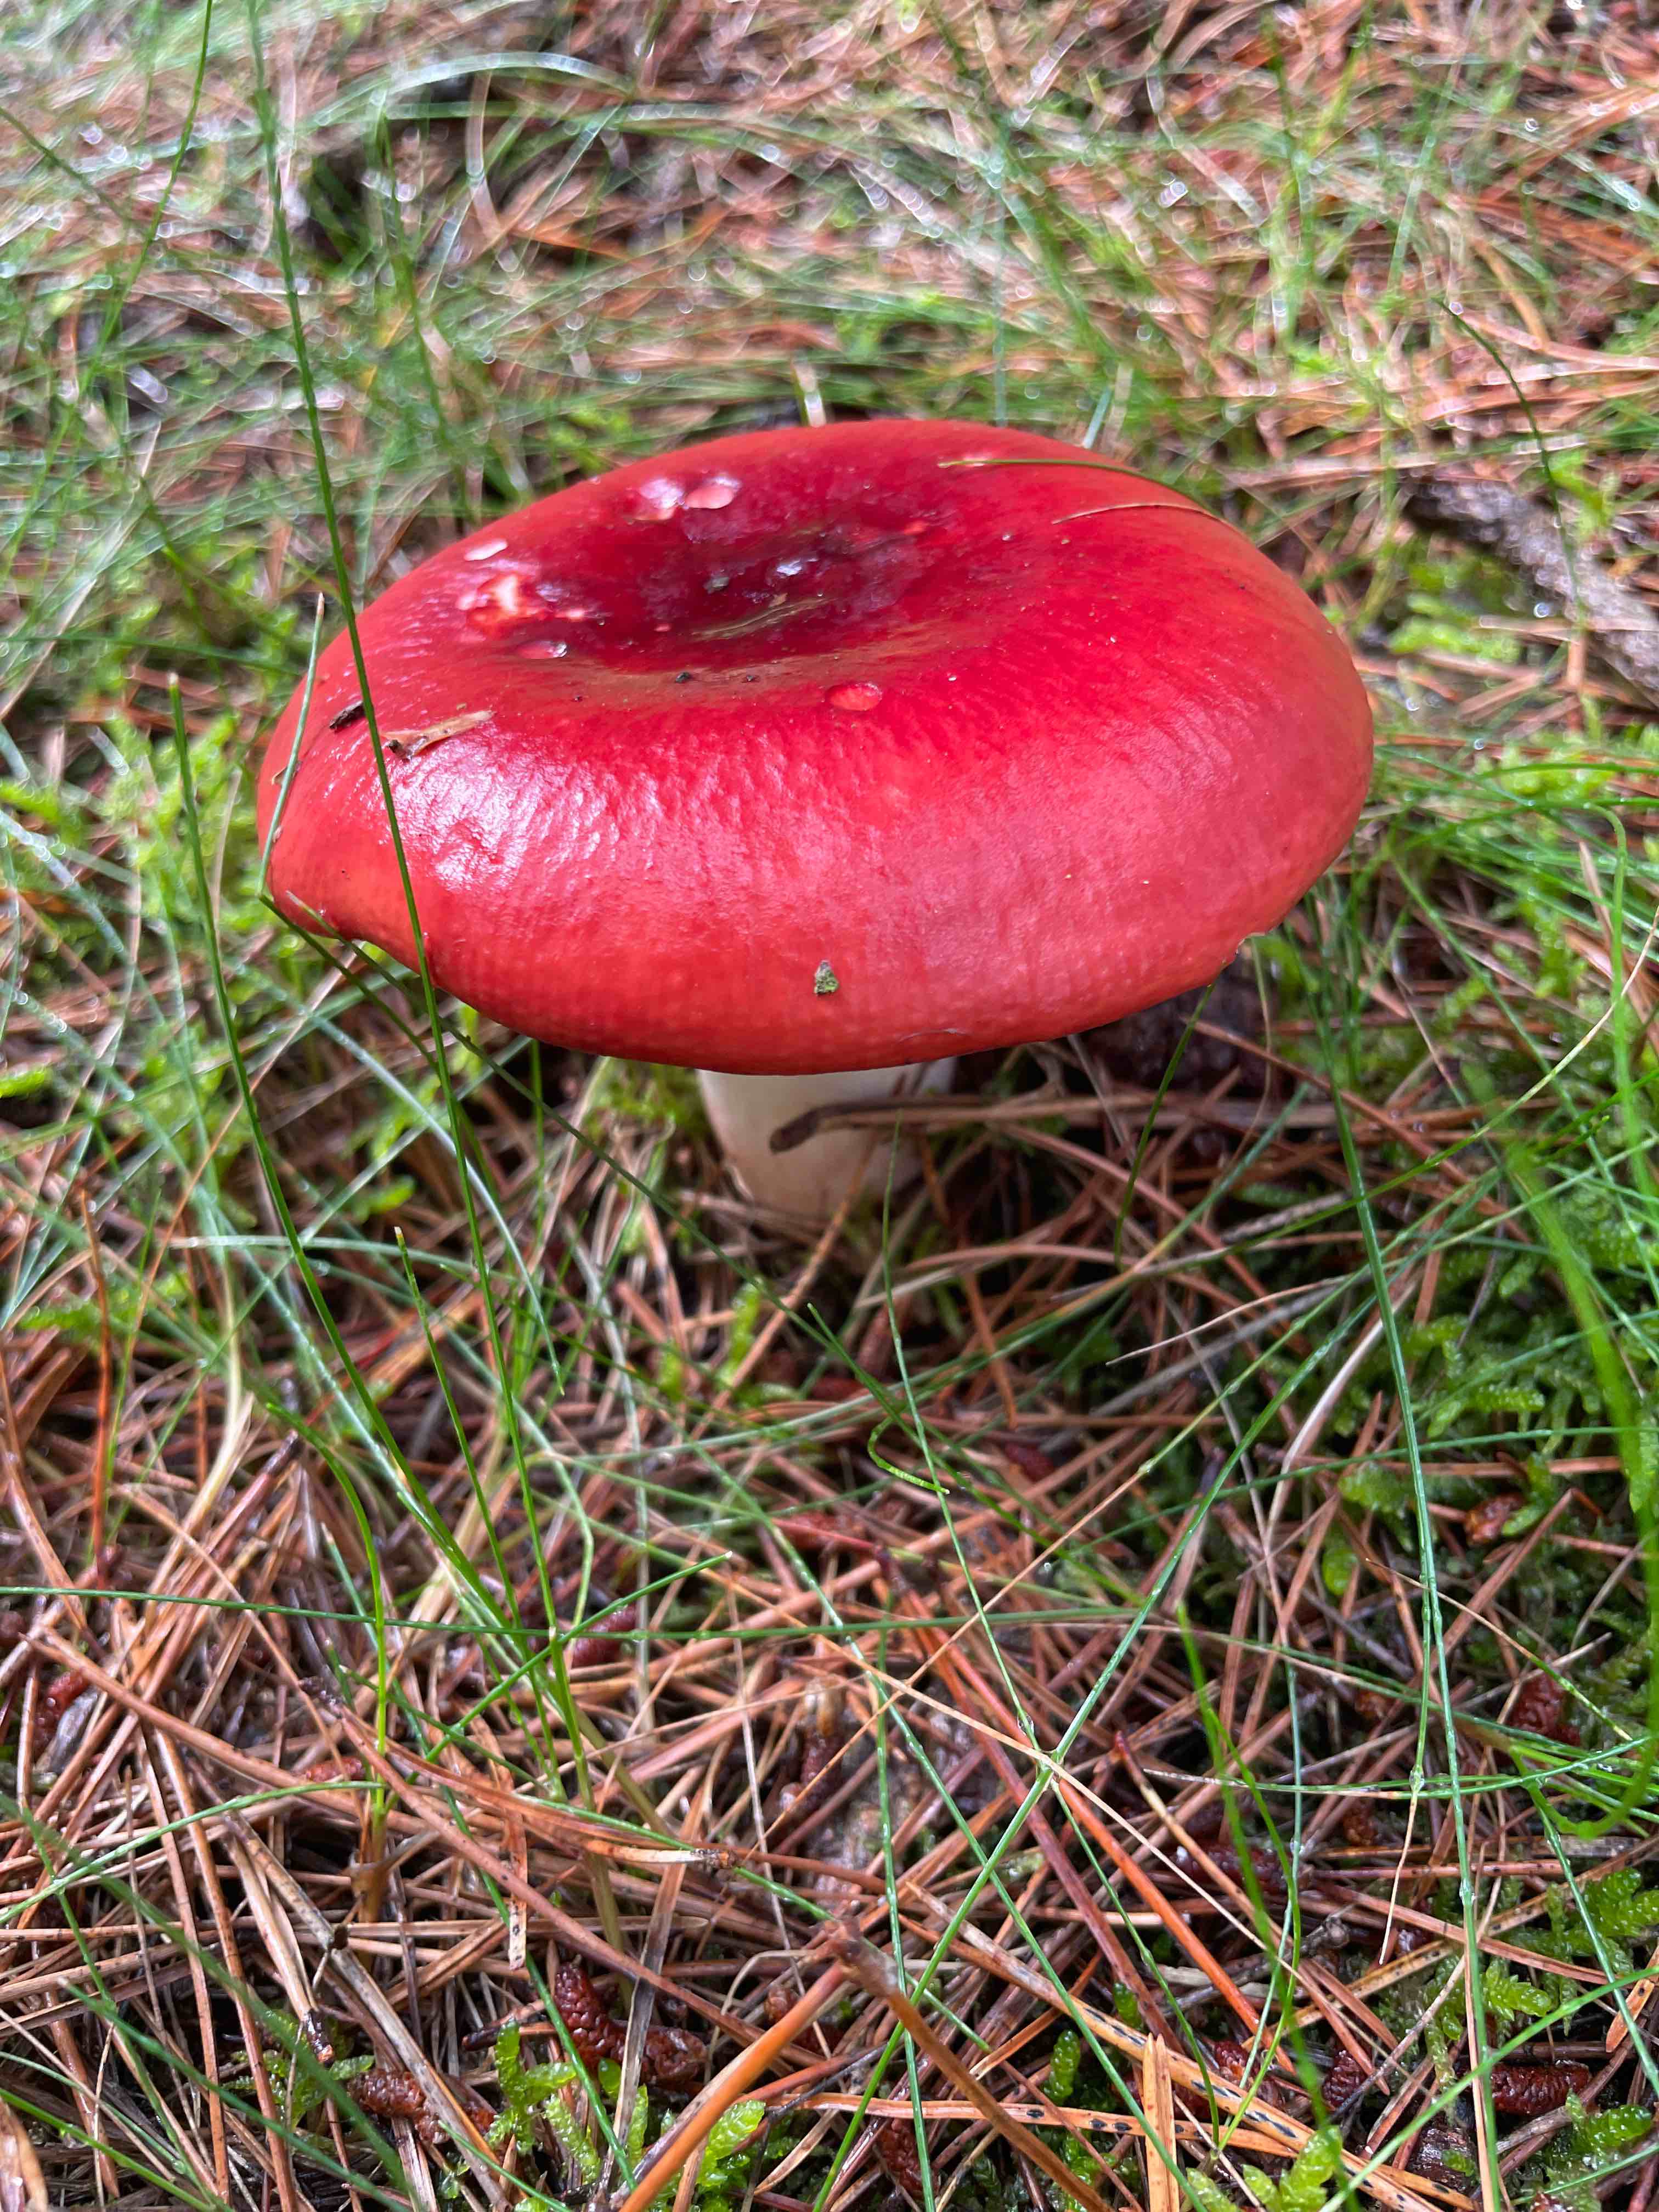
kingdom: Fungi
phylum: Basidiomycota
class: Agaricomycetes
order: Russulales
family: Russulaceae
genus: Russula
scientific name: Russula
